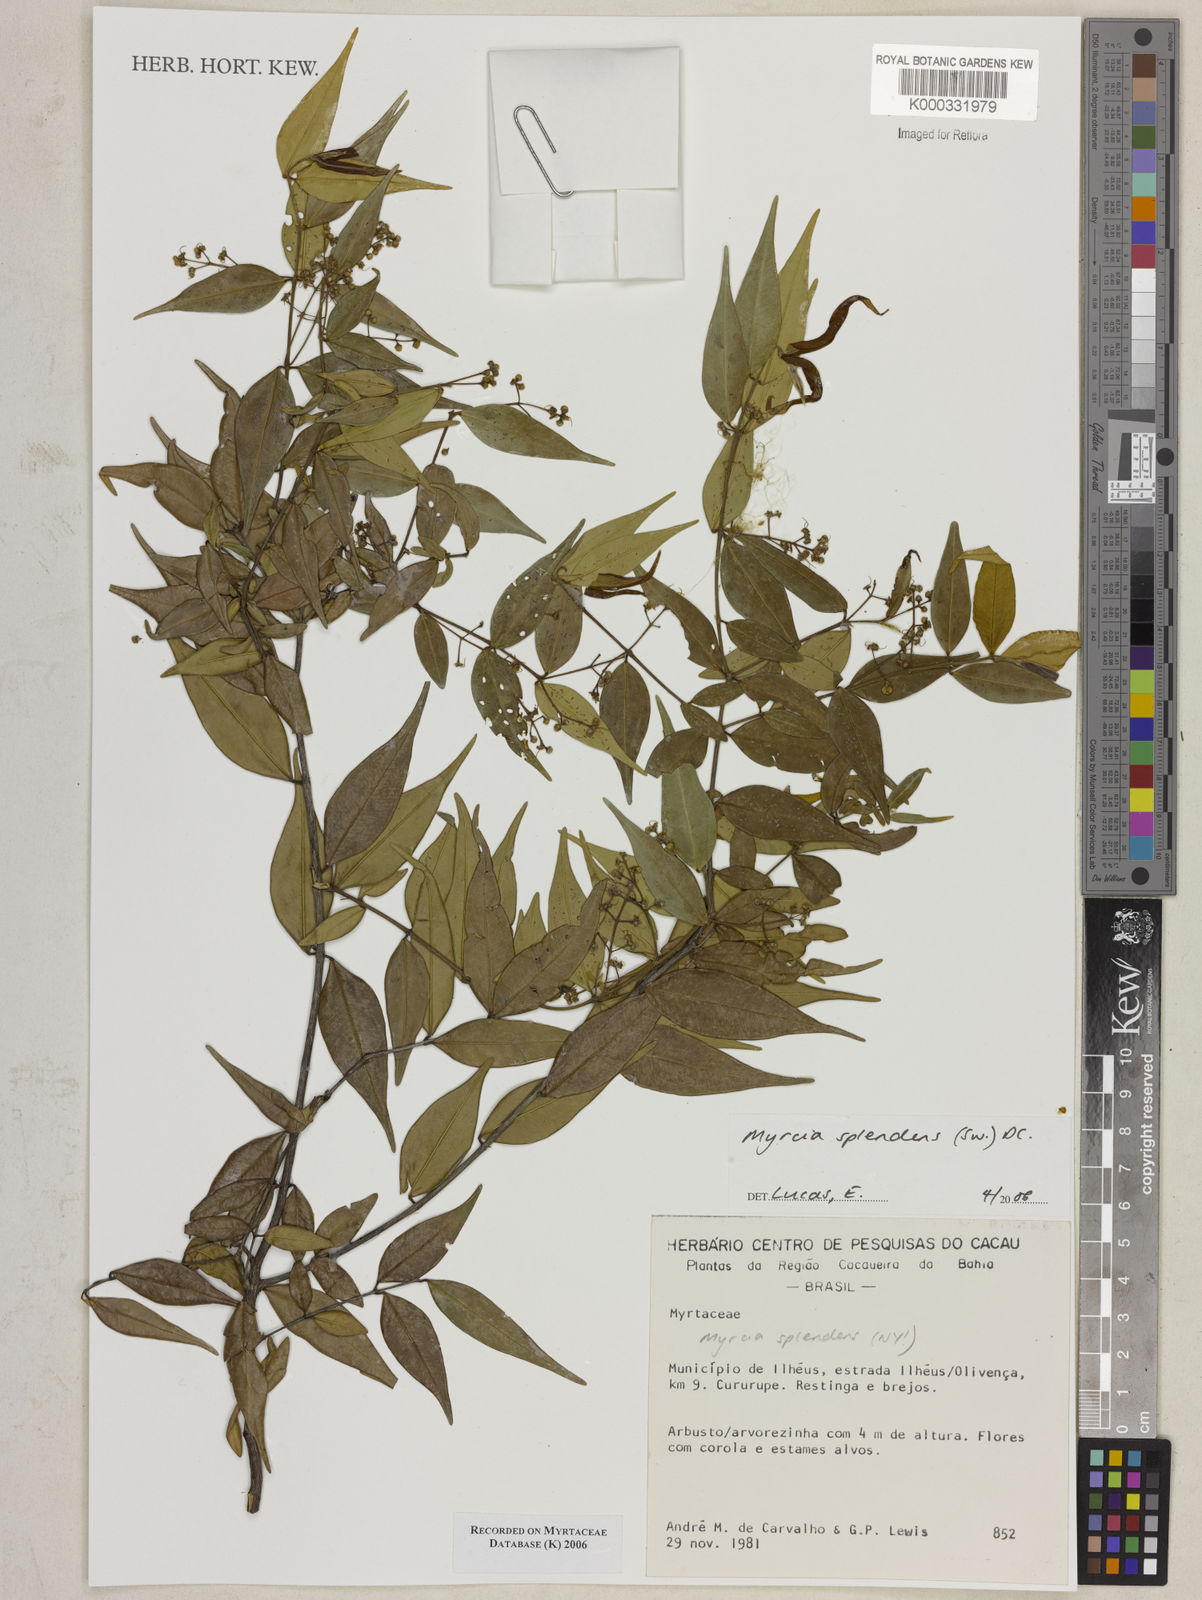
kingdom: Plantae
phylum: Tracheophyta
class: Magnoliopsida
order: Myrtales
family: Myrtaceae
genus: Myrcia
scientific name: Myrcia splendens
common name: Surinam cherry
